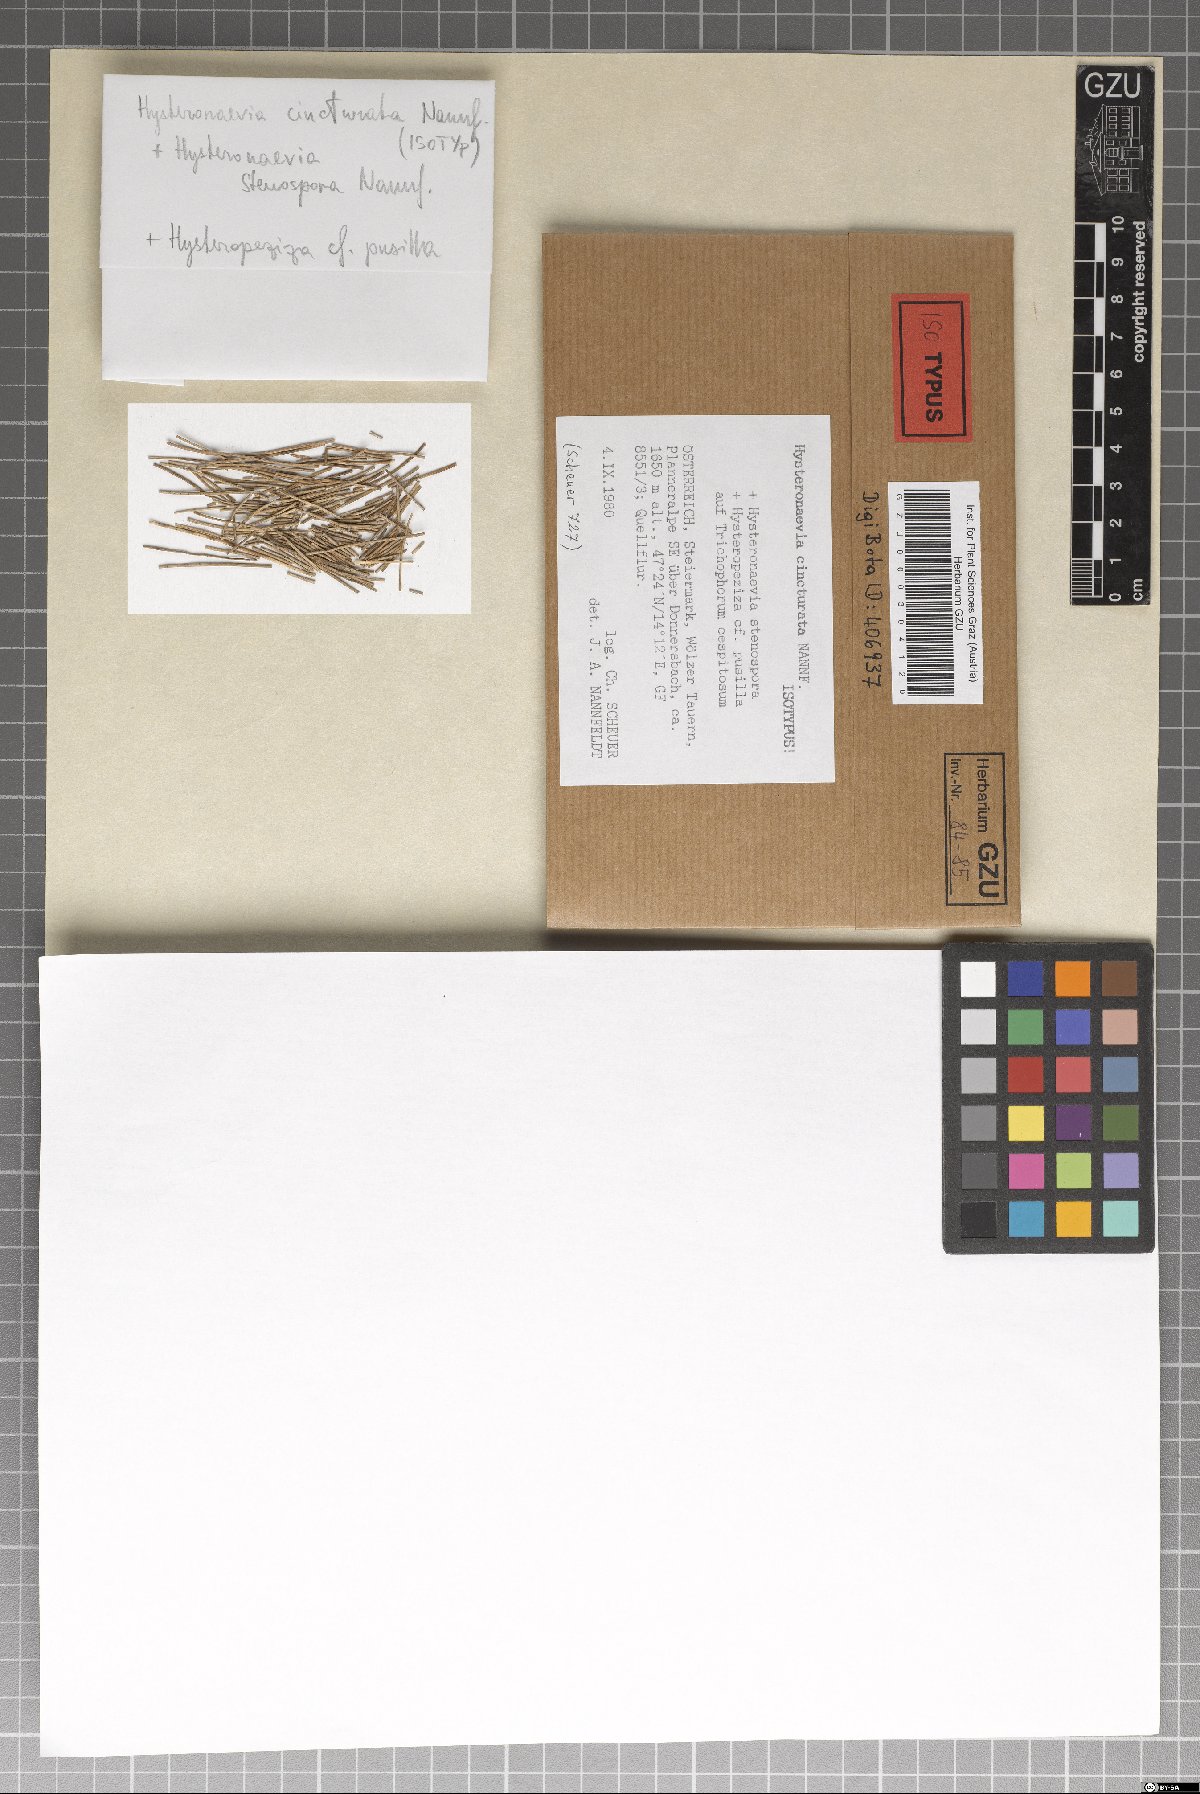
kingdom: Fungi
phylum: Ascomycota
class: Leotiomycetes
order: Helotiales
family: Dermateaceae
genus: Hysteronaevia
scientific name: Hysteronaevia cincturata
